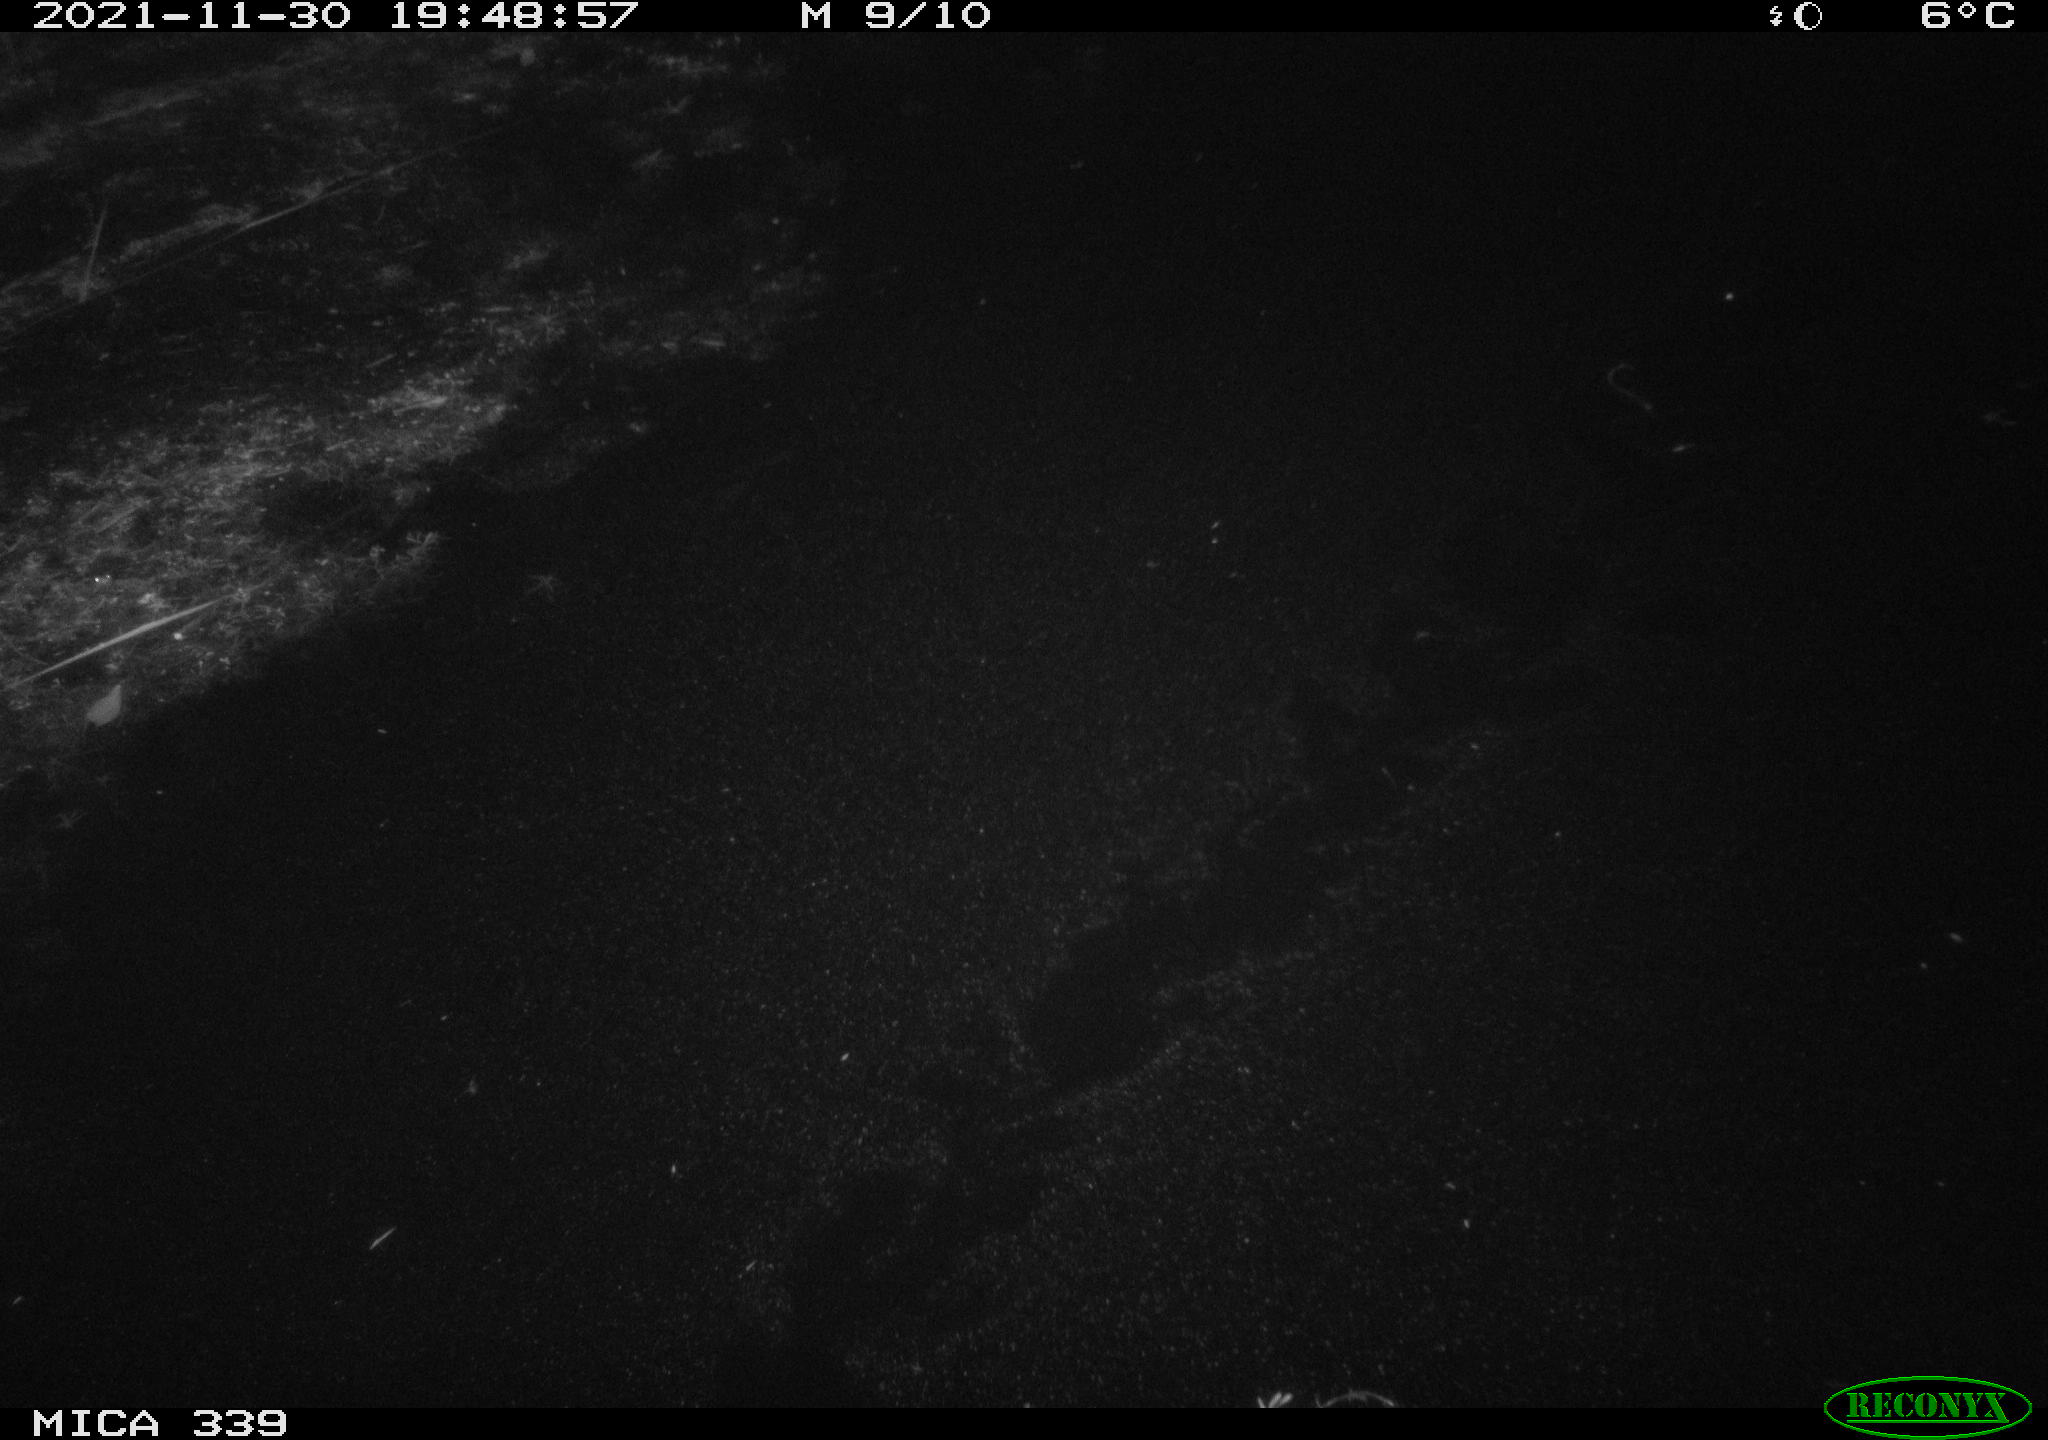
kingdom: Animalia
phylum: Chordata
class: Aves
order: Gruiformes
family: Rallidae
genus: Gallinula
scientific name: Gallinula chloropus
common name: Common moorhen
